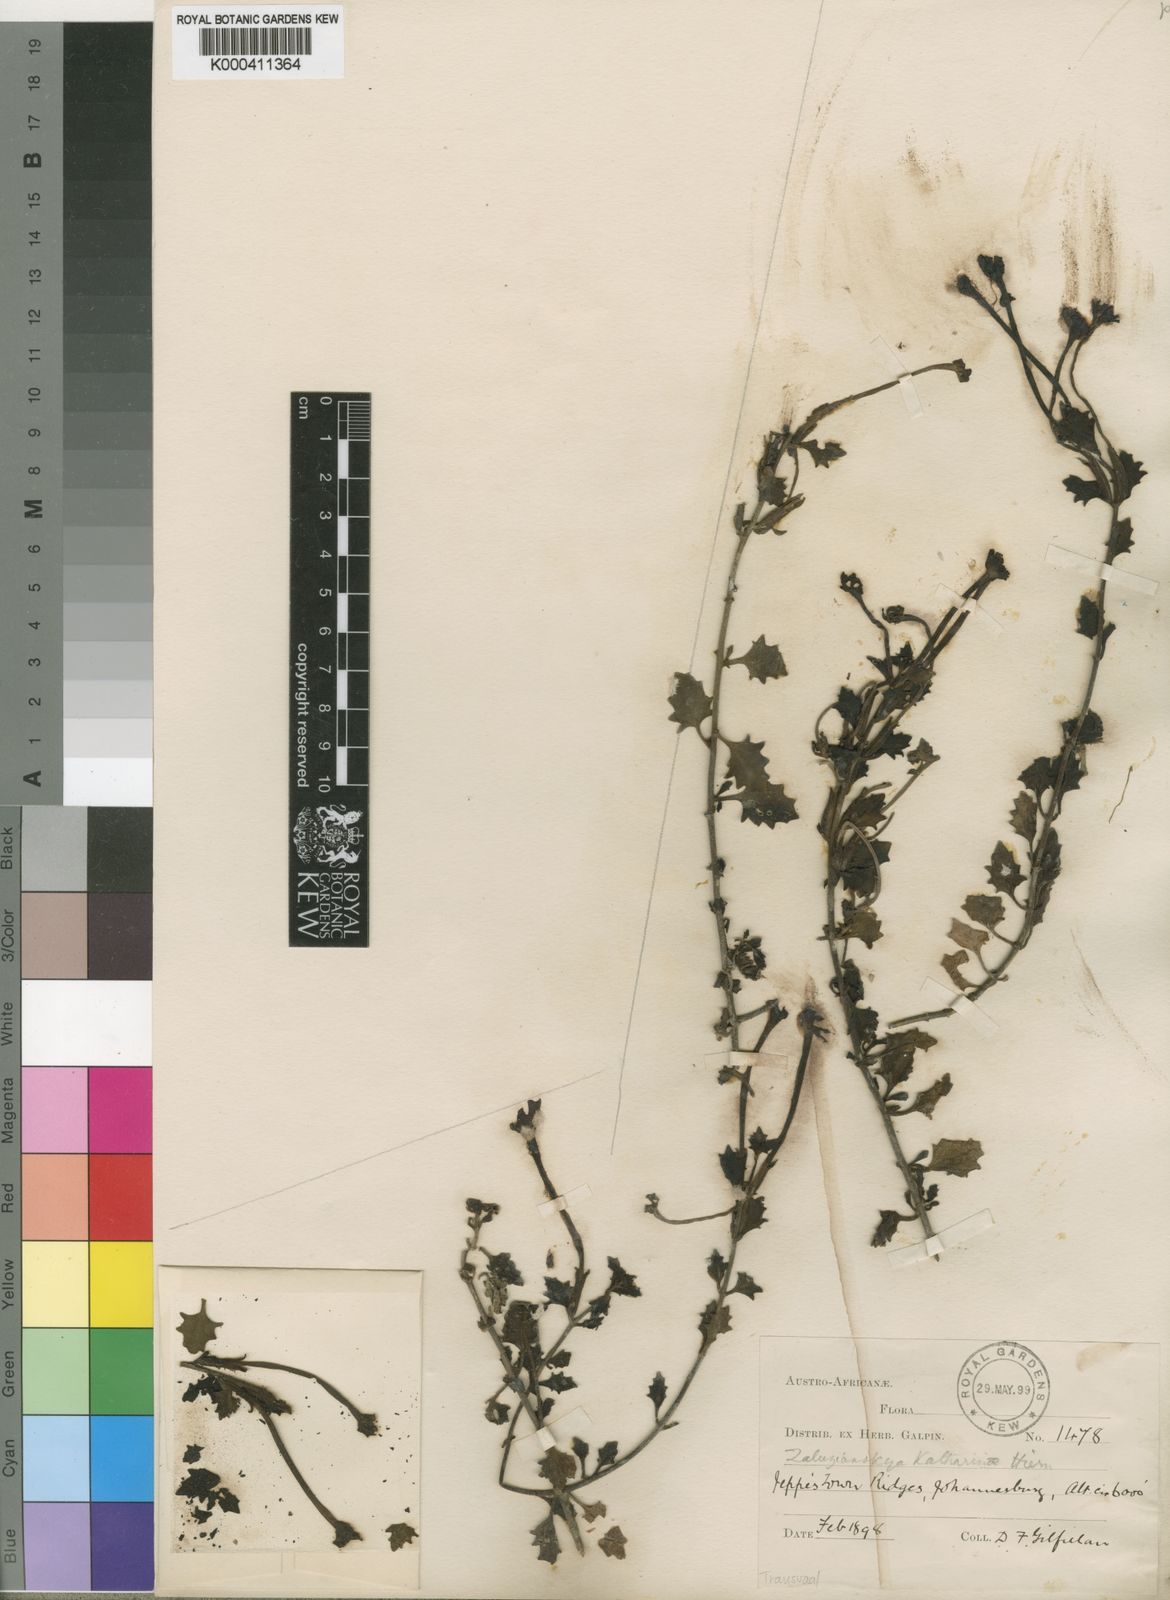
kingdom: Plantae
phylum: Tracheophyta
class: Magnoliopsida
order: Lamiales
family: Scrophulariaceae
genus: Zaluzianskya
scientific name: Zaluzianskya katharinae
